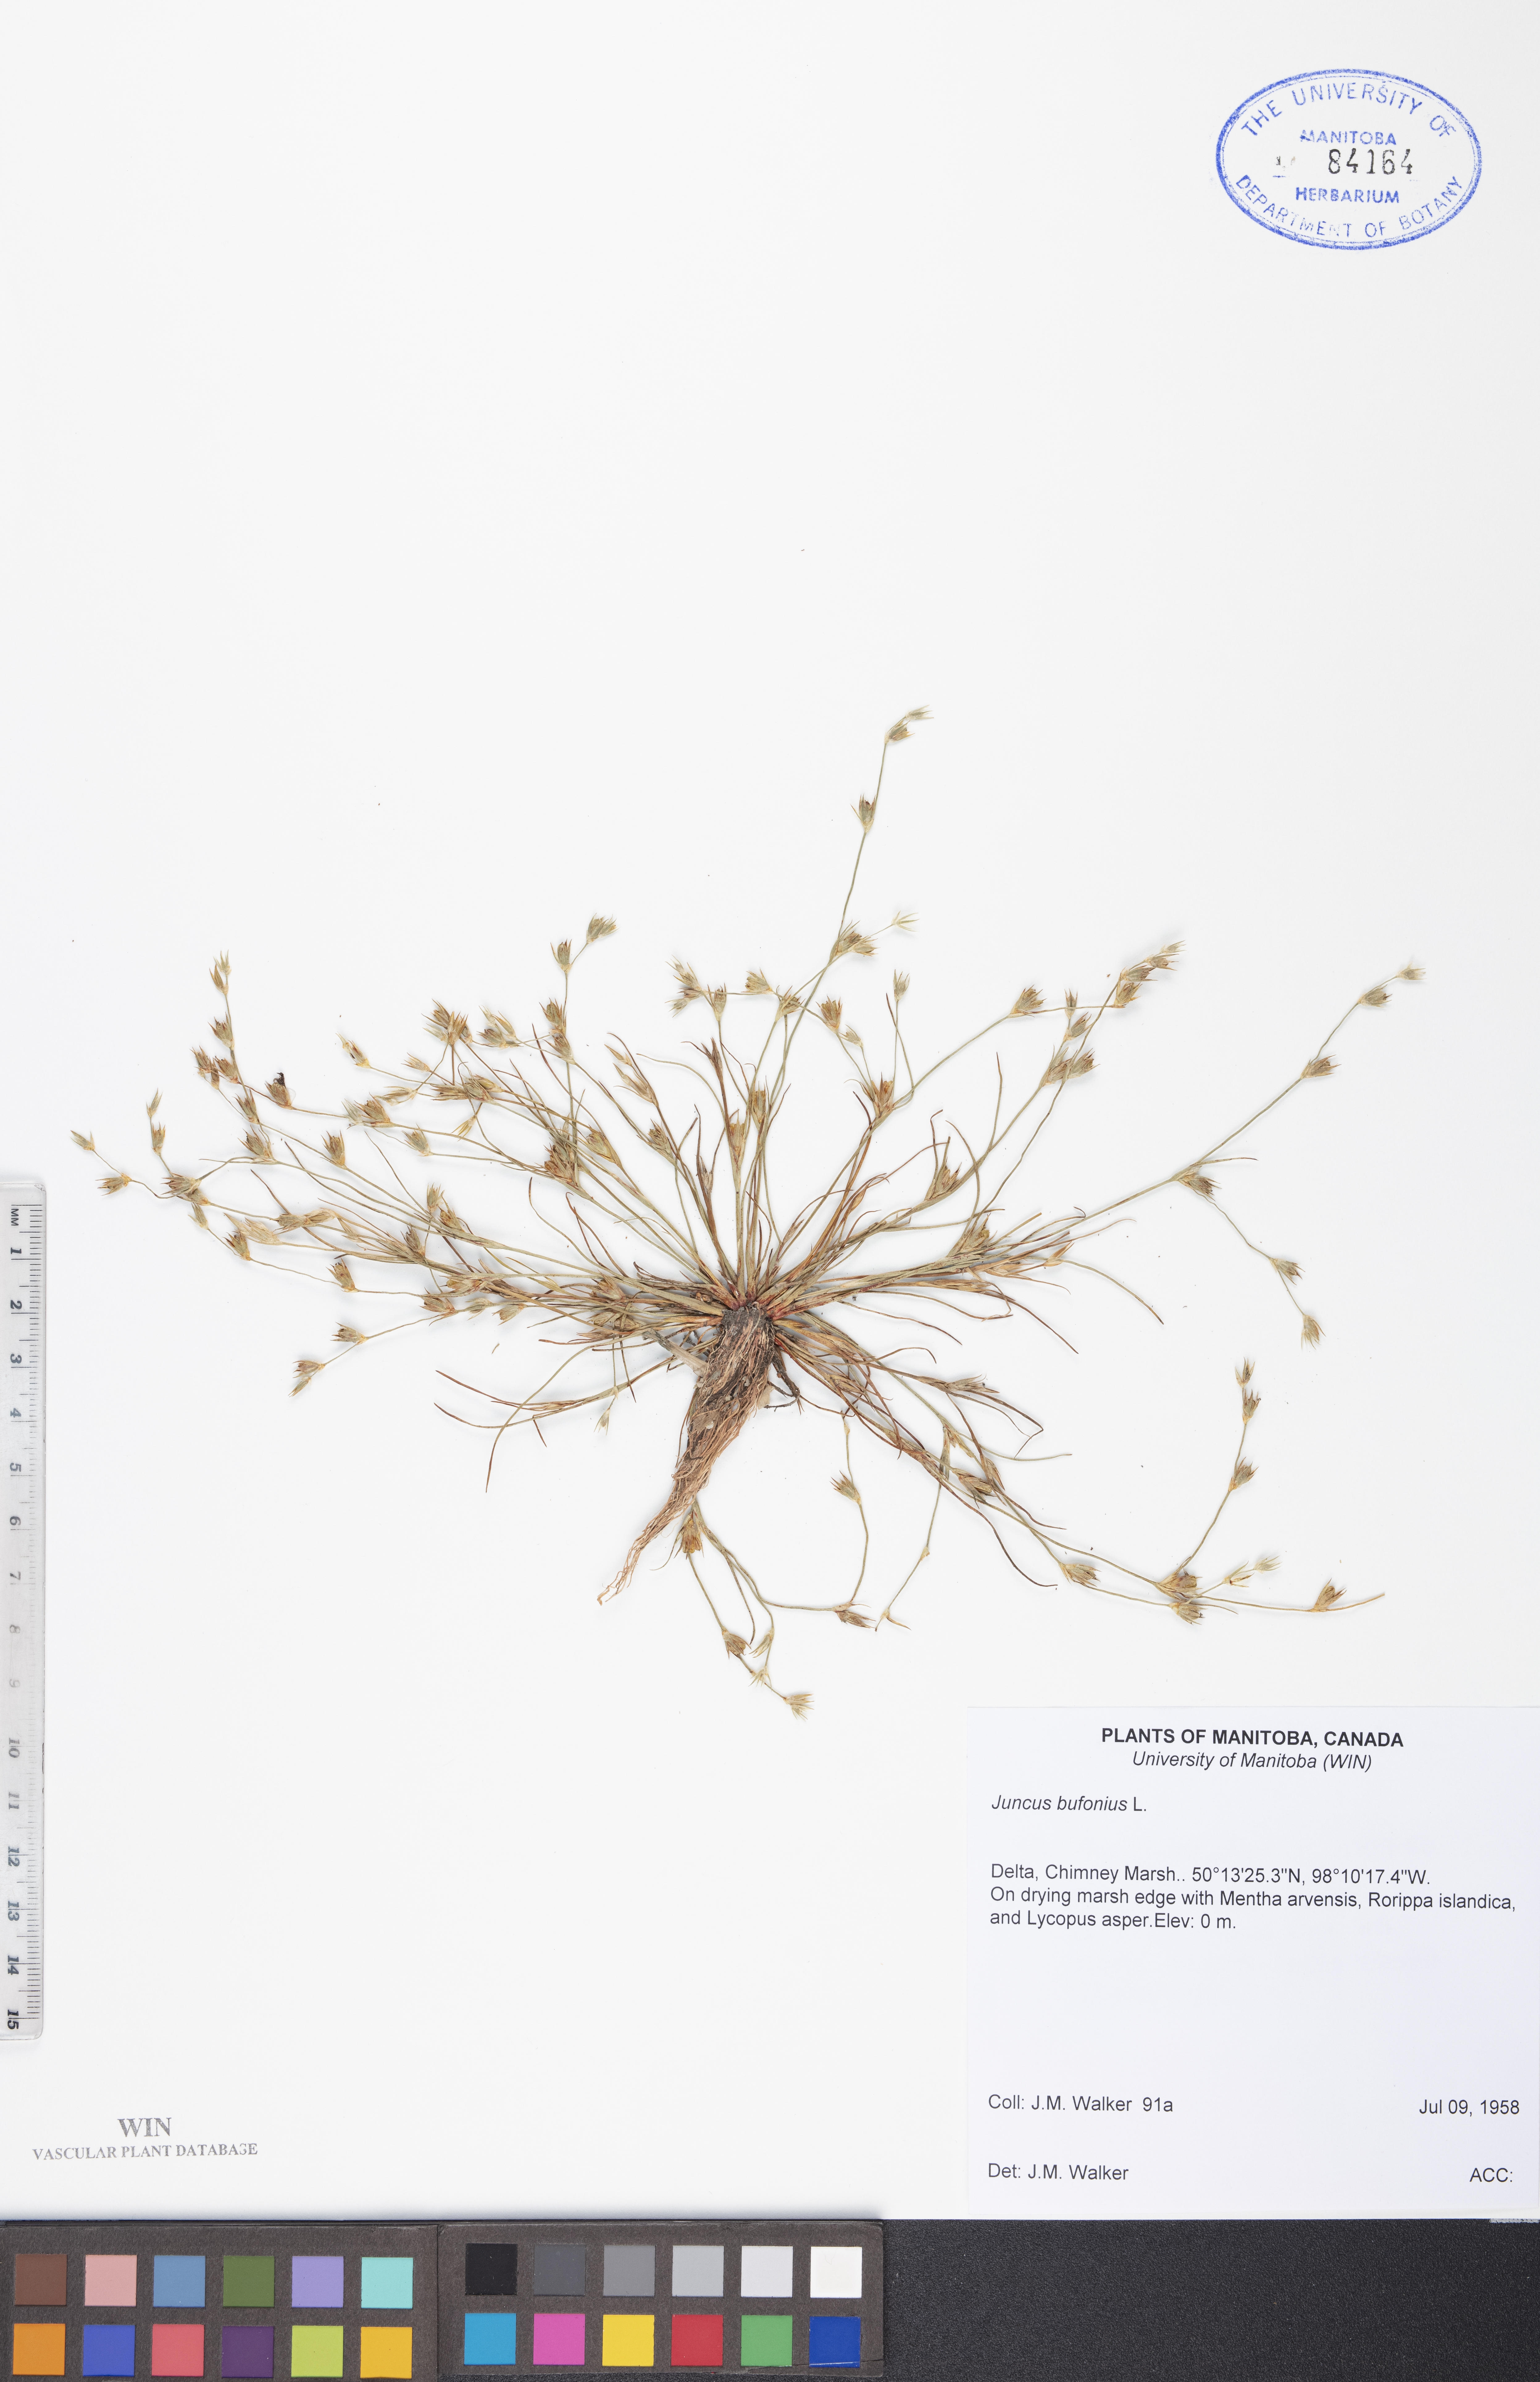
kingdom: Plantae
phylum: Tracheophyta
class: Liliopsida
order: Poales
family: Juncaceae
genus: Juncus
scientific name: Juncus bufonius
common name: Toad rush
